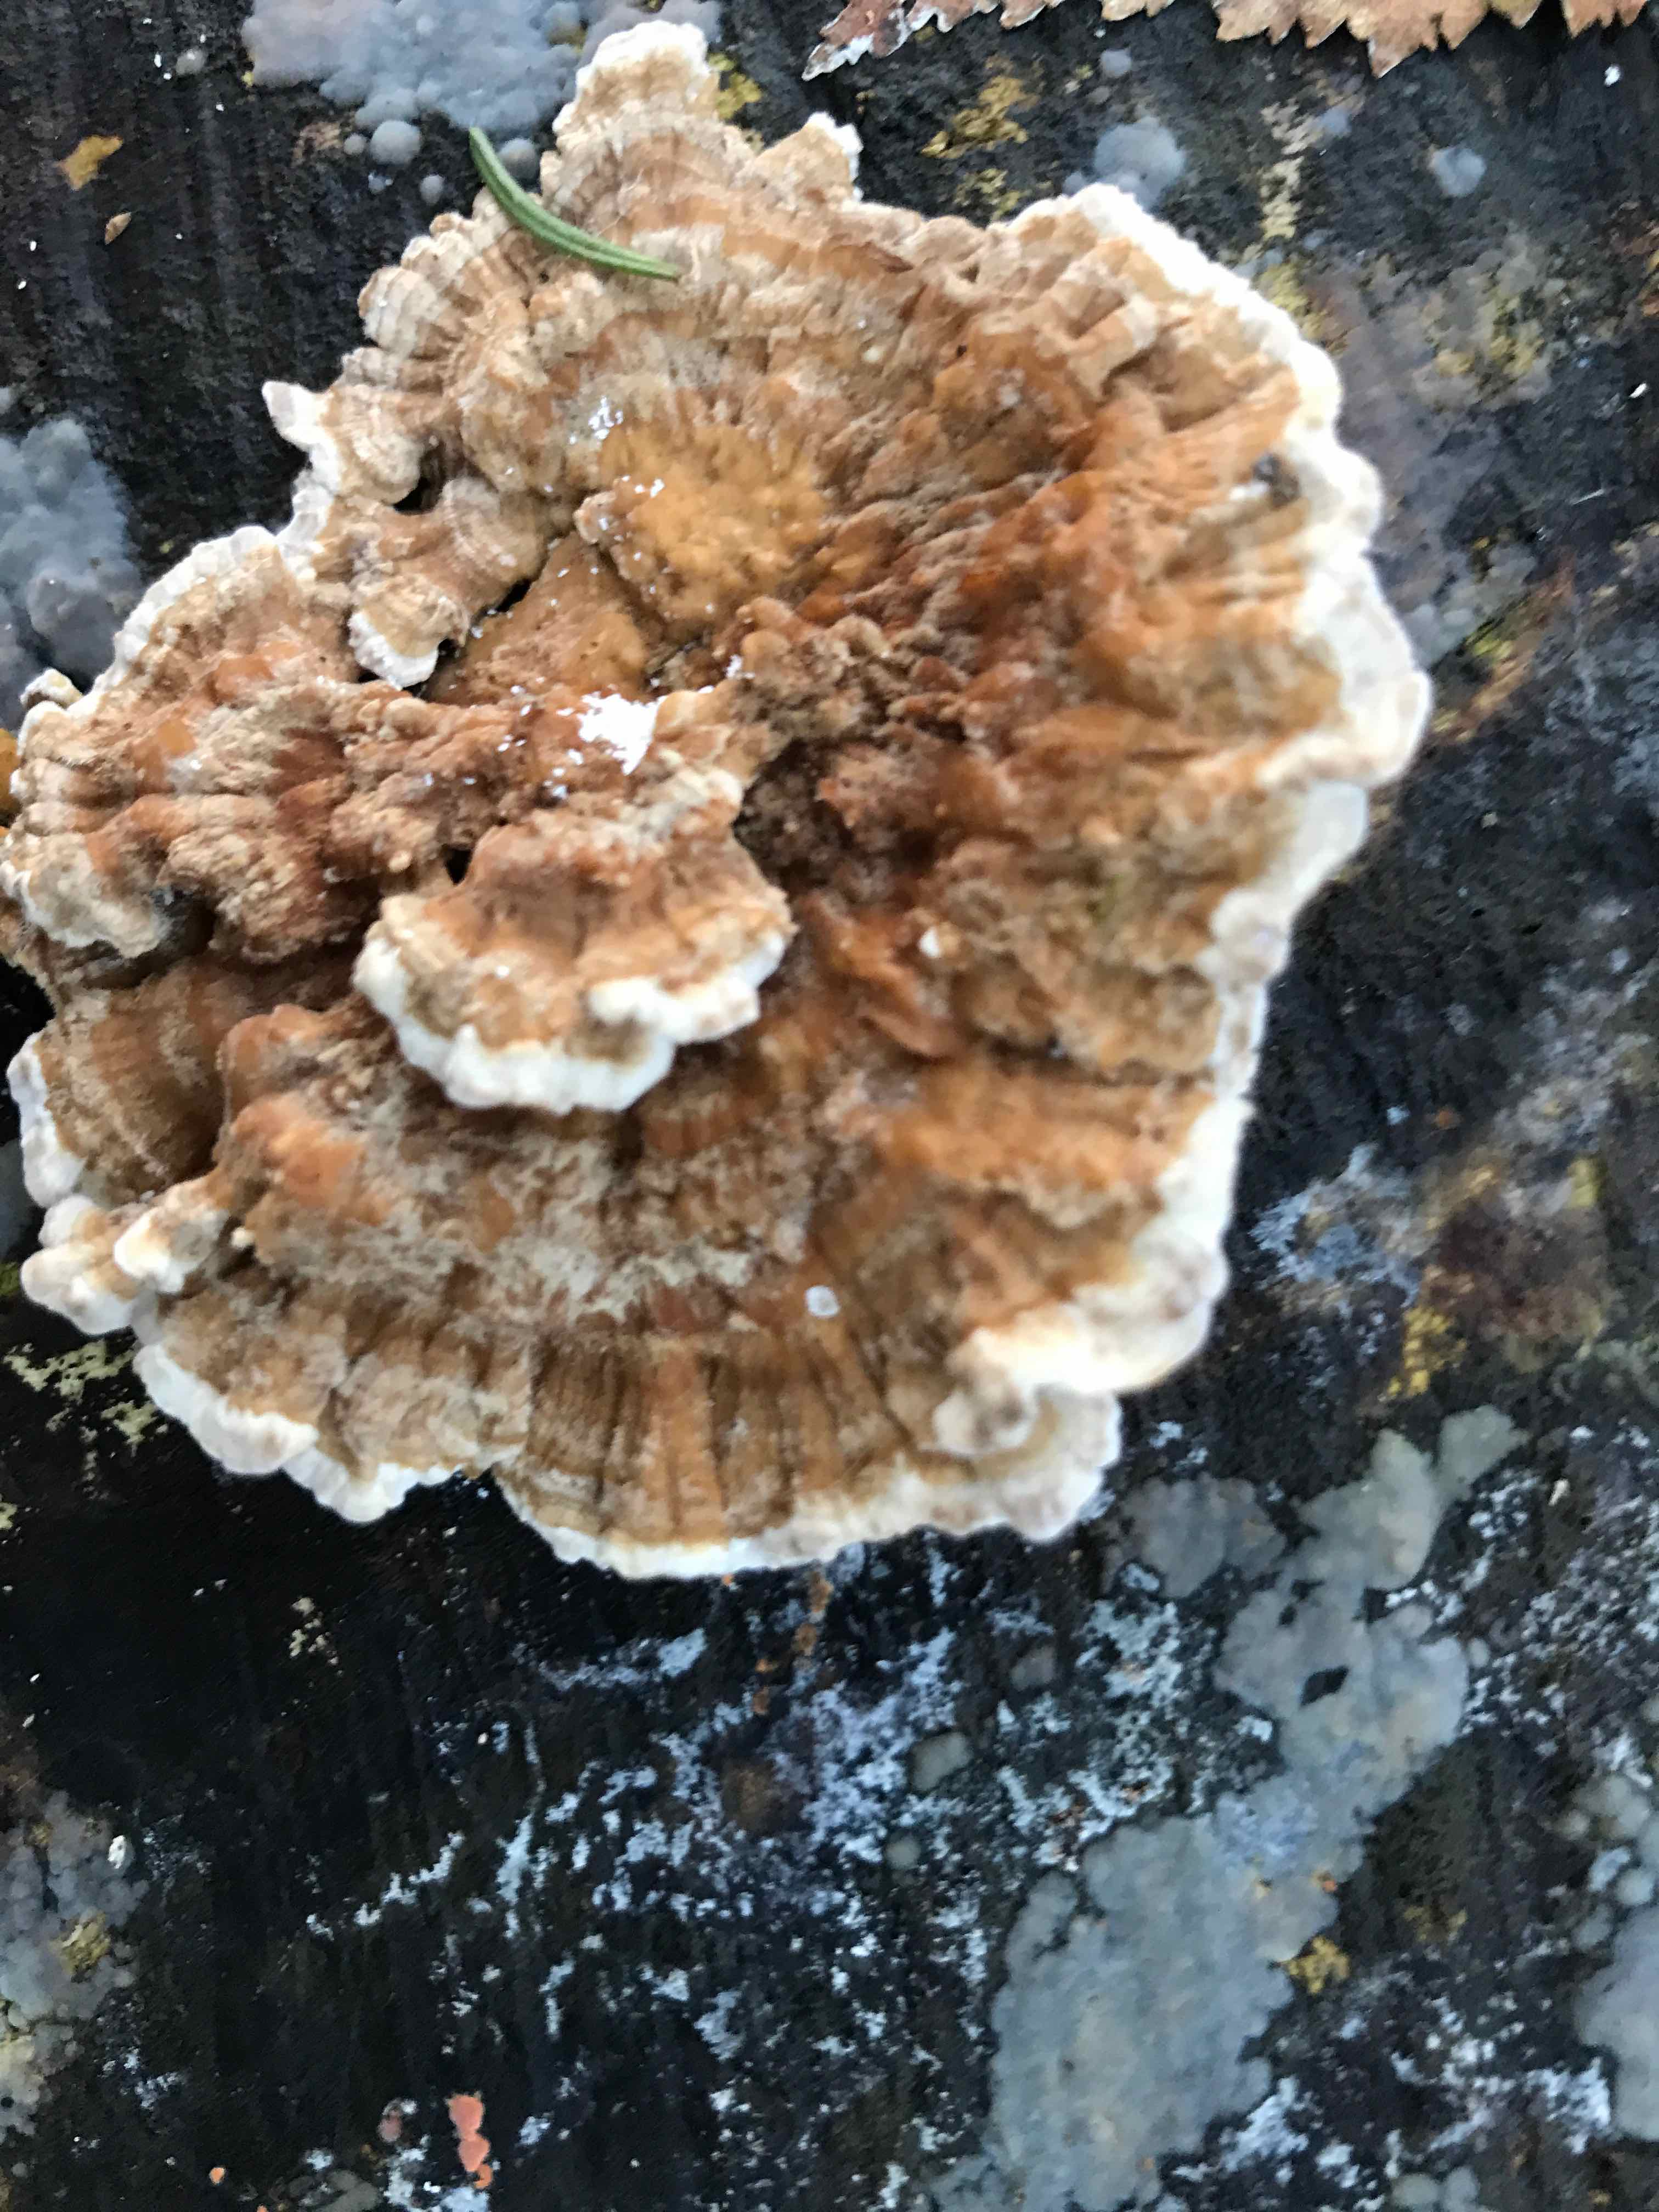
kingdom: Fungi
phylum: Basidiomycota
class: Agaricomycetes
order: Polyporales
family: Polyporaceae
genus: Trametes
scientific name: Trametes ochracea
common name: bæltet læderporesvamp
